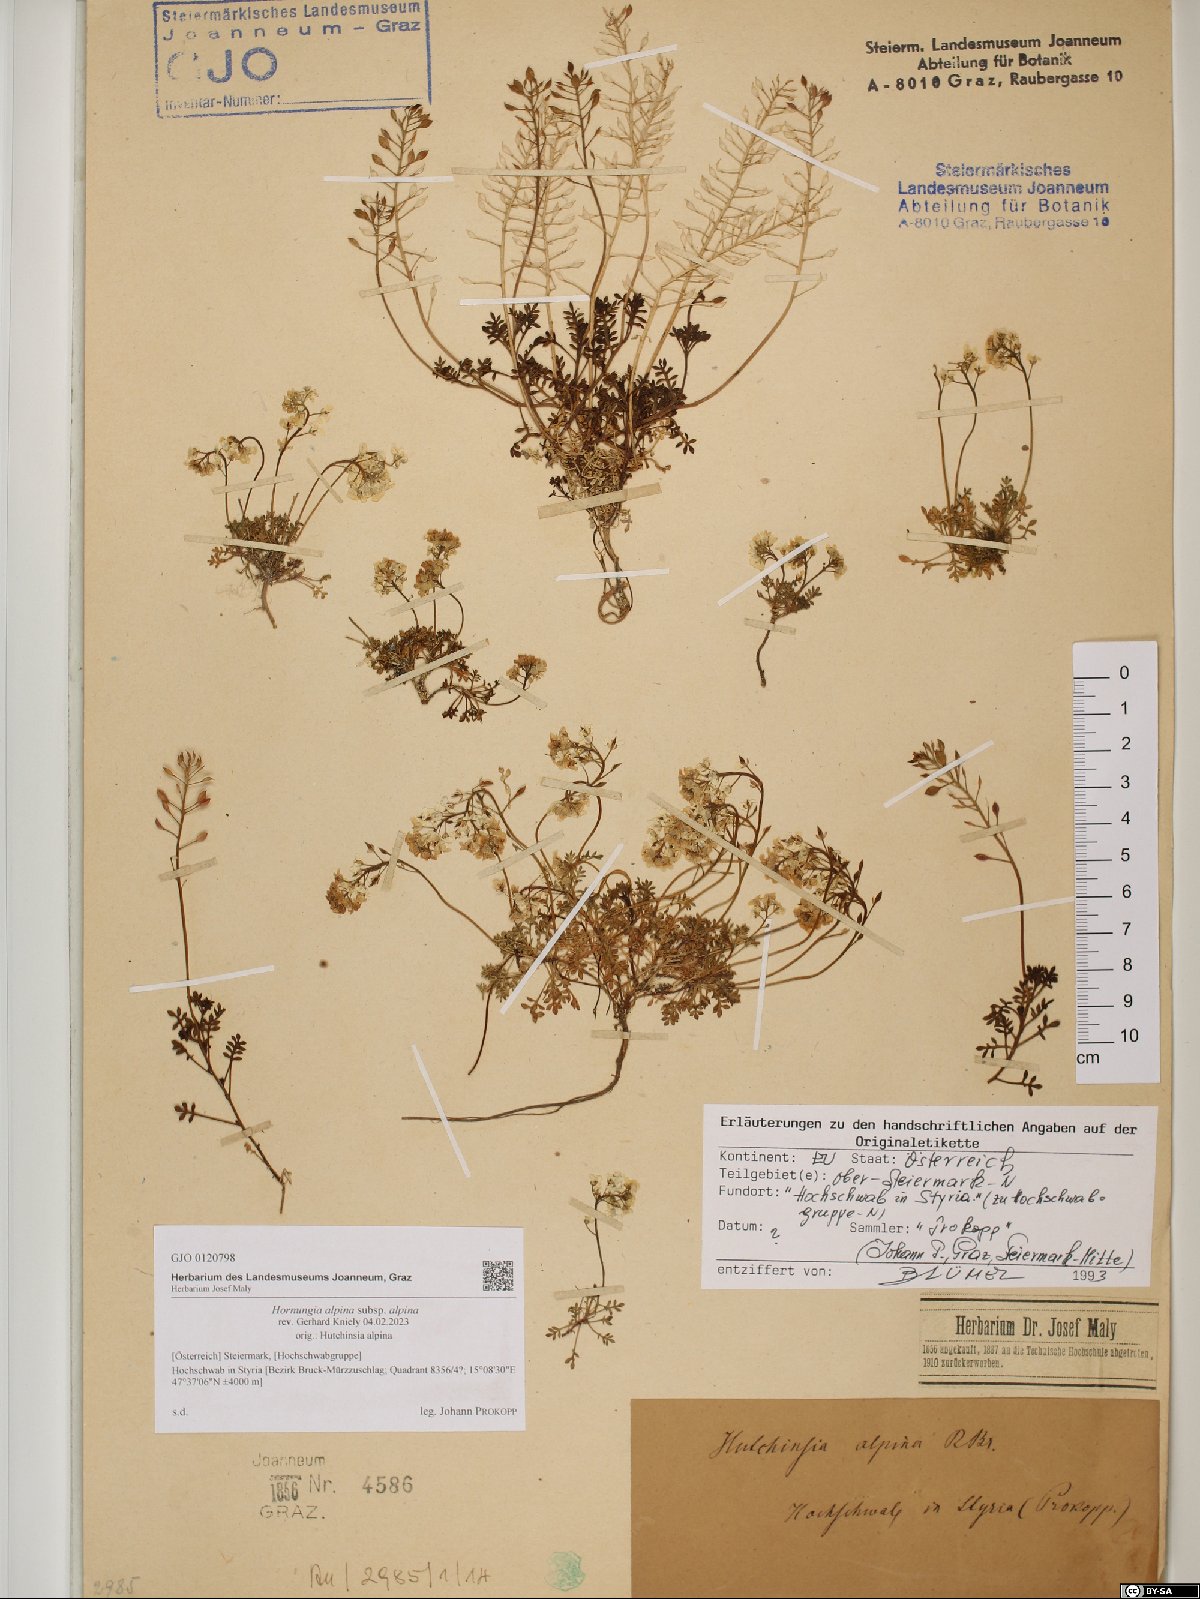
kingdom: Plantae
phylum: Tracheophyta
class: Magnoliopsida
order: Brassicales
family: Brassicaceae
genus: Hornungia
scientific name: Hornungia alpina
